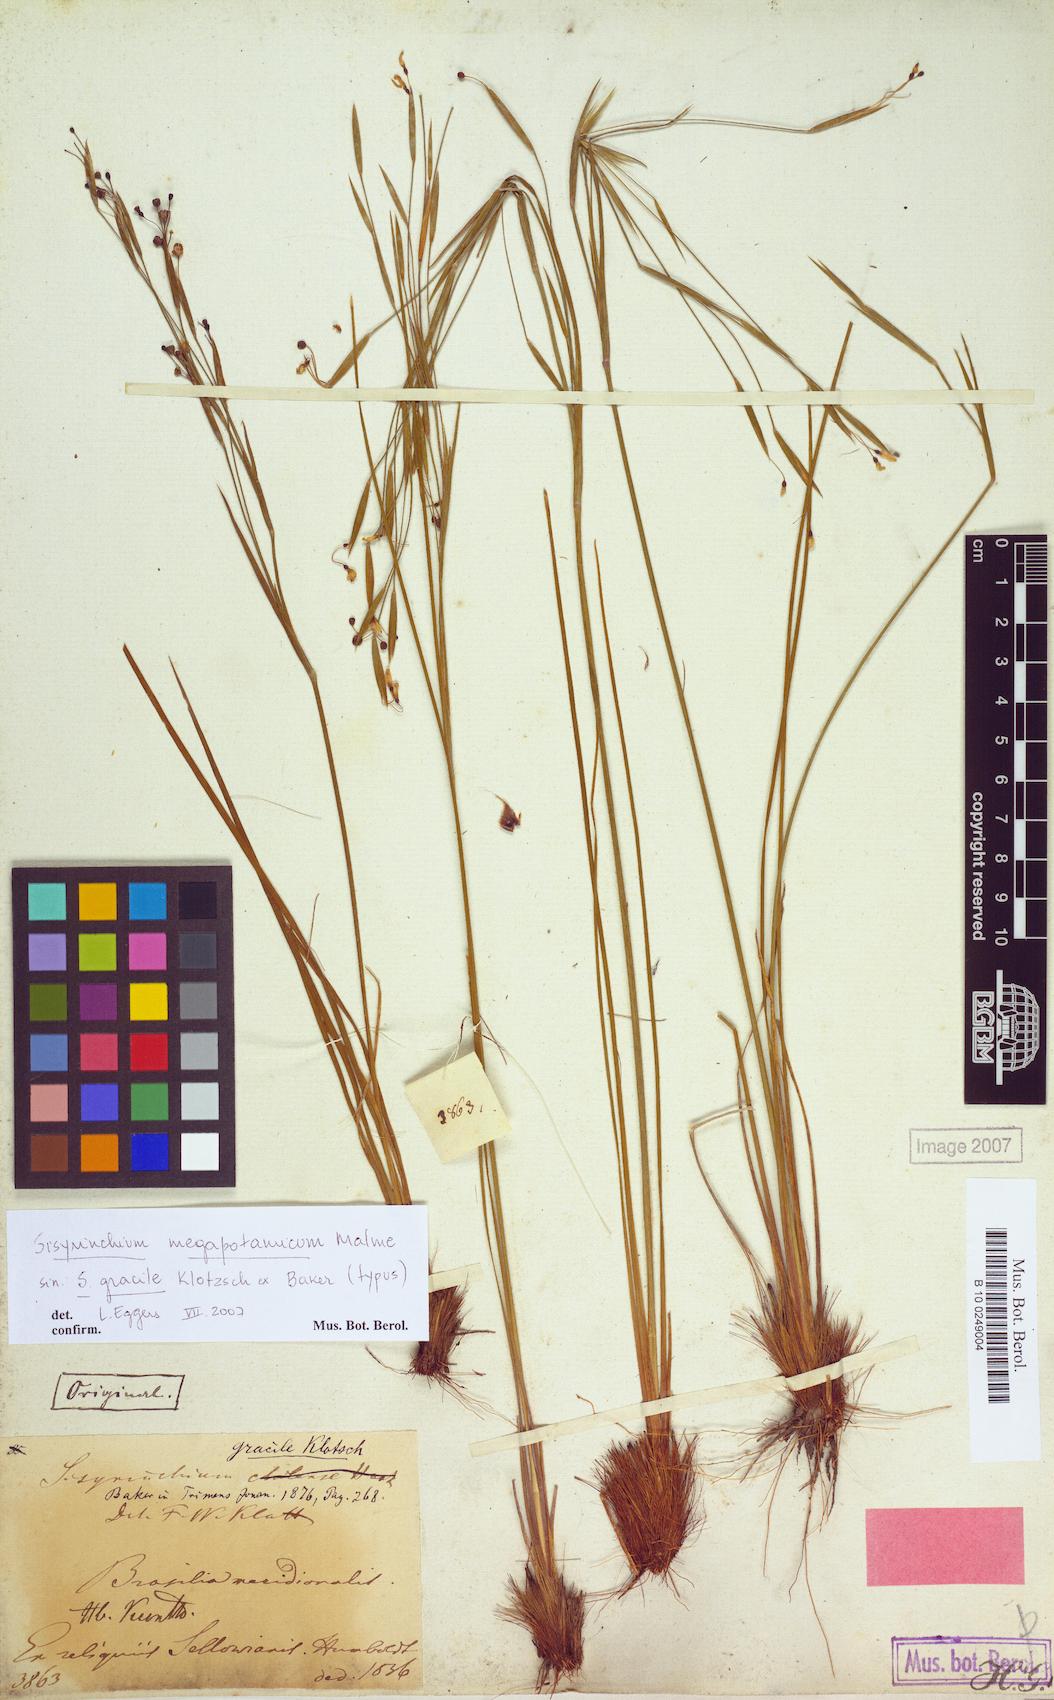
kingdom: Plantae
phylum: Tracheophyta
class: Liliopsida
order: Asparagales
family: Iridaceae
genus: Sisyrinchium
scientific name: Sisyrinchium megapotamicum
